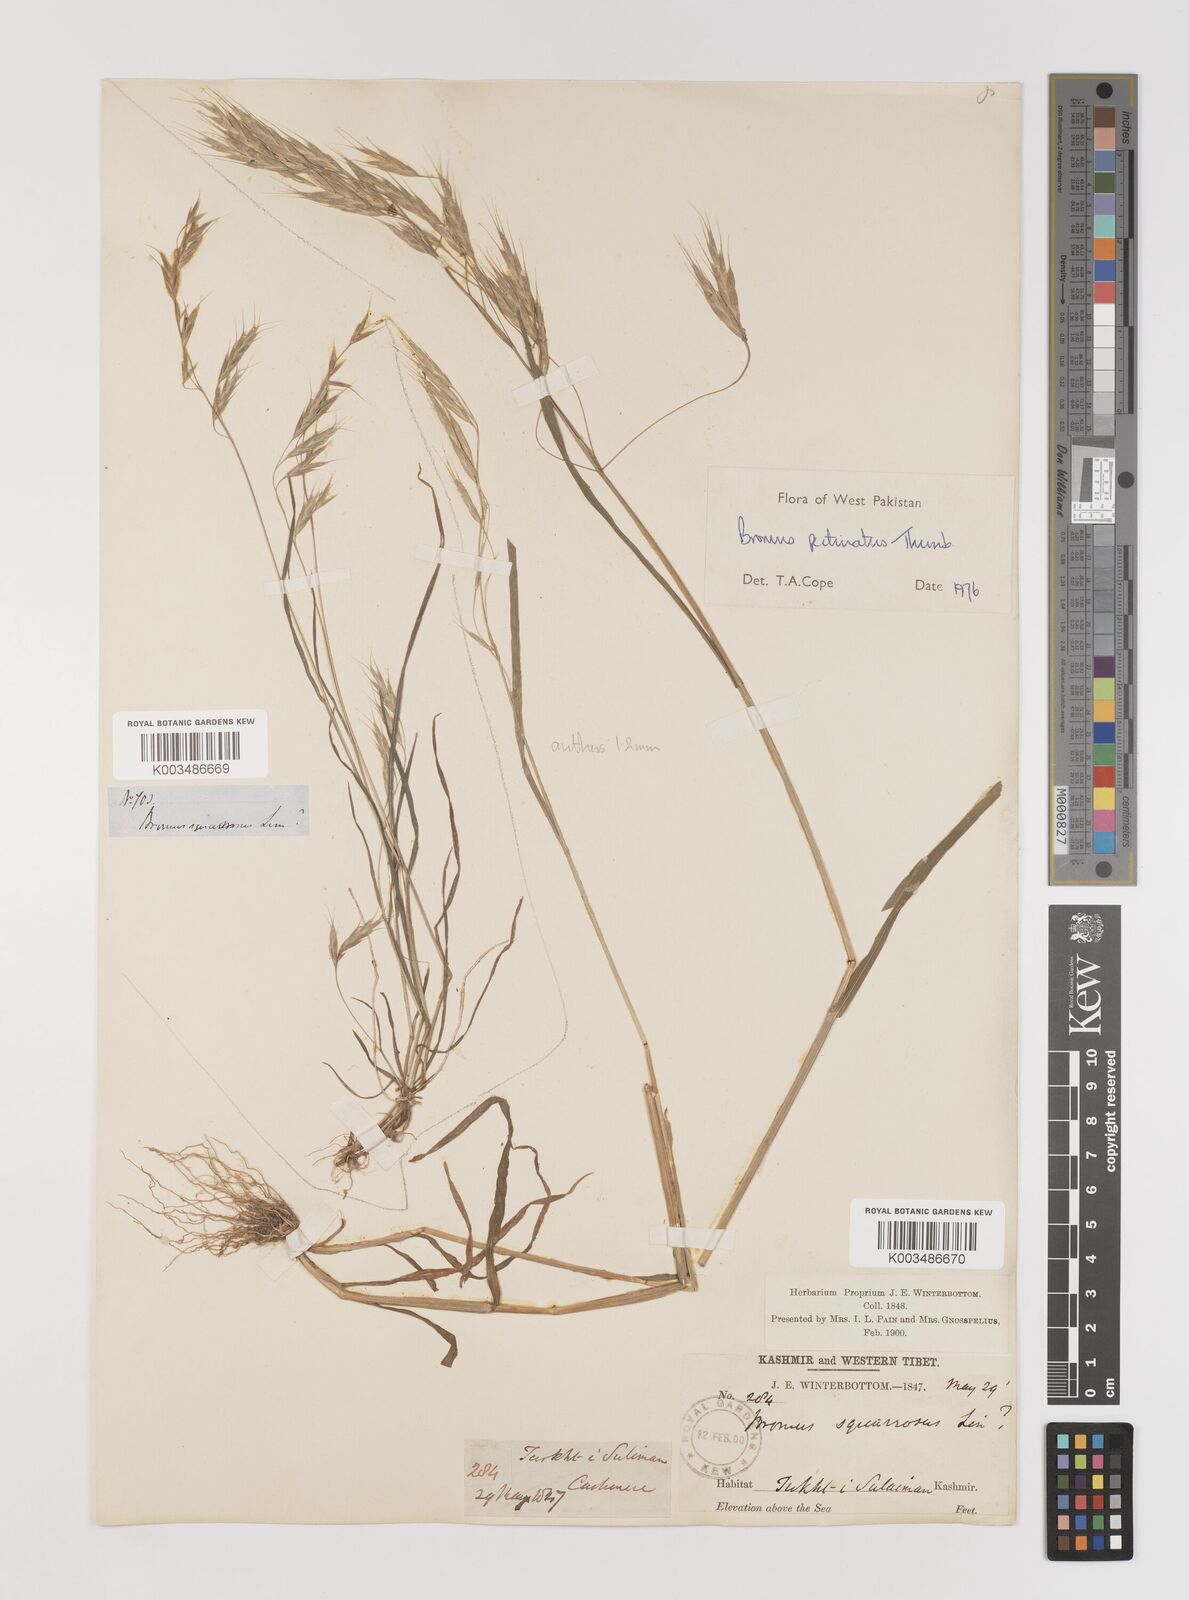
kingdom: Plantae
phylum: Tracheophyta
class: Liliopsida
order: Poales
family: Poaceae
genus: Bromus
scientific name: Bromus pectinatus
